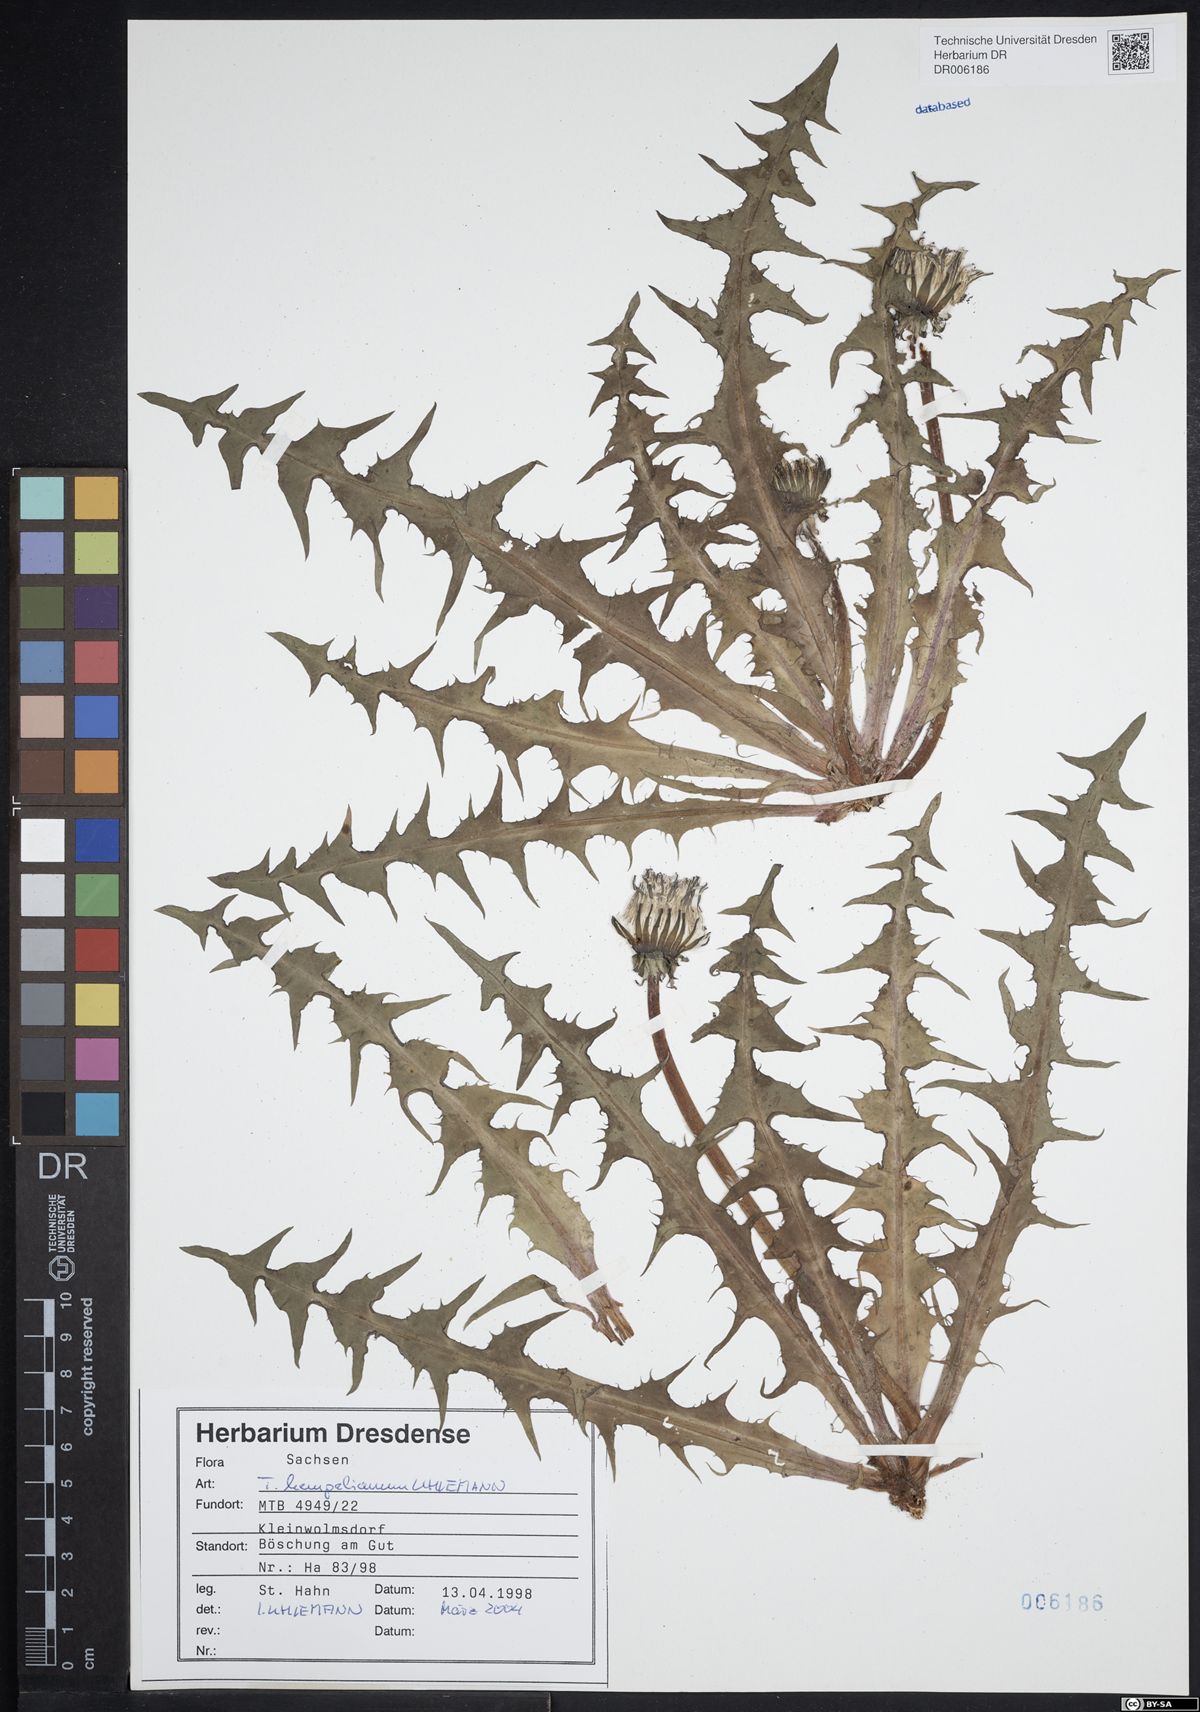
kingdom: Plantae
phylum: Tracheophyta
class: Magnoliopsida
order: Asterales
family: Asteraceae
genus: Taraxacum
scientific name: Taraxacum hempelianum
